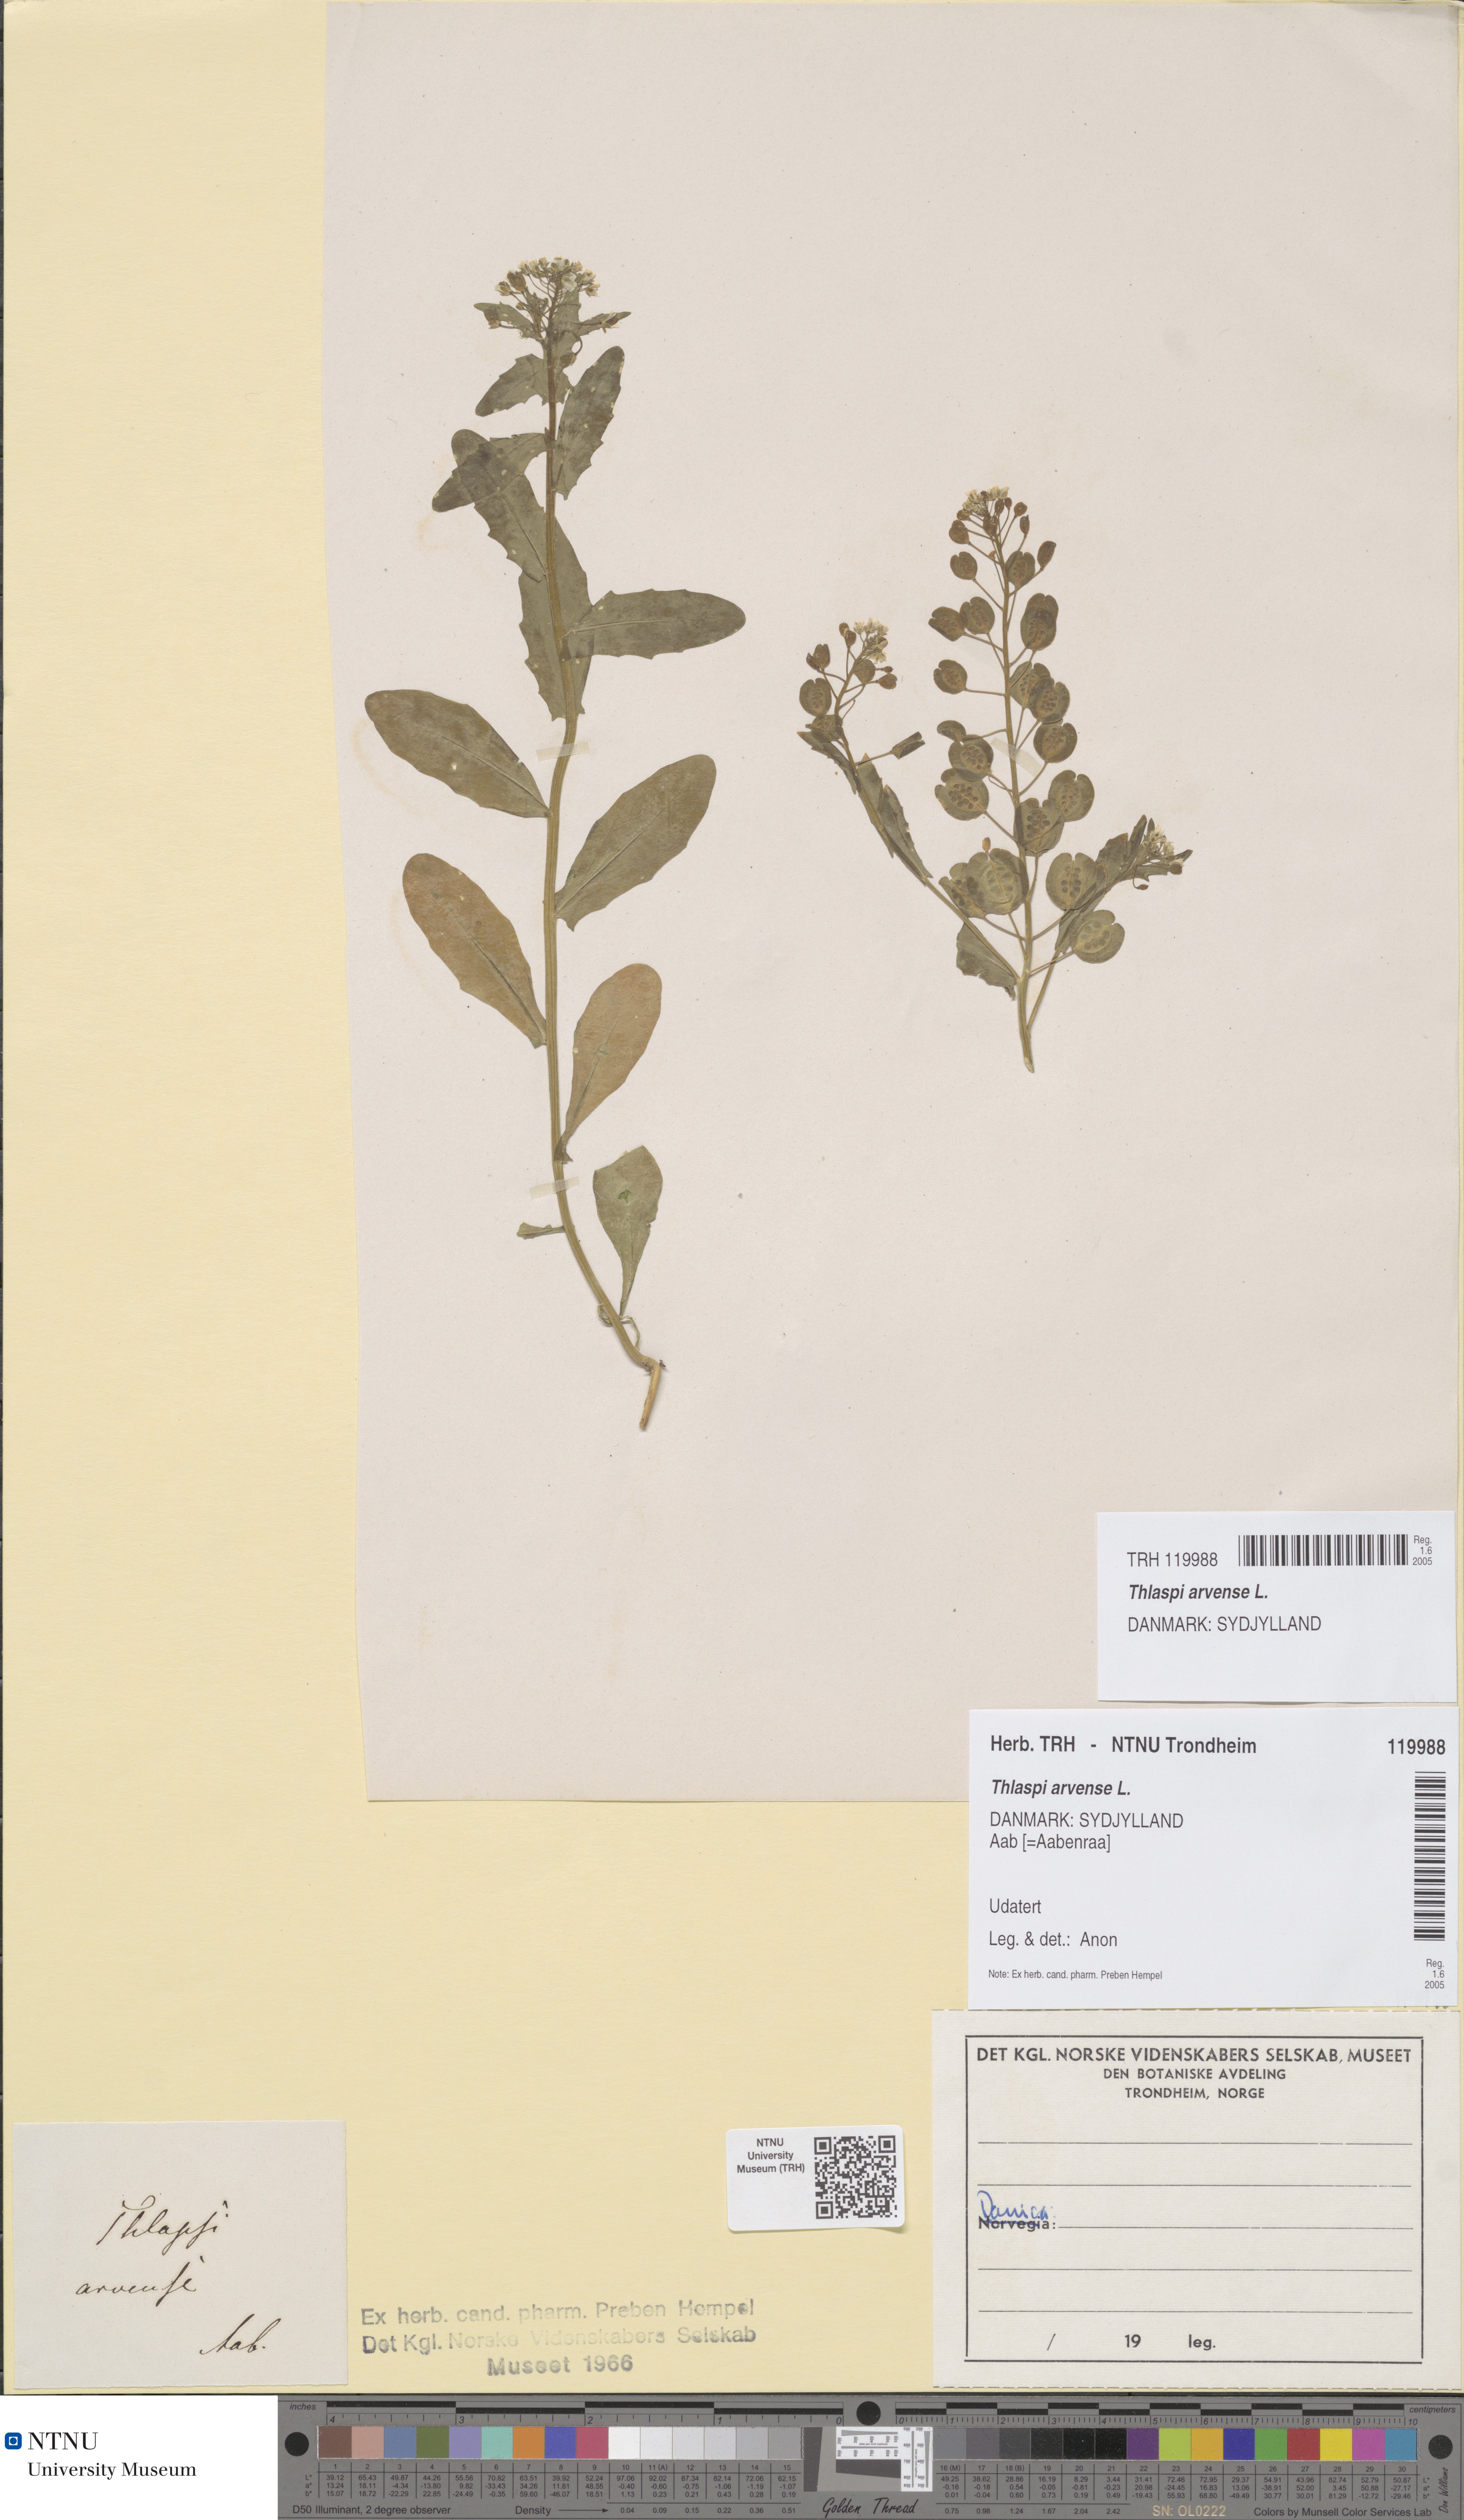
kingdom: Plantae
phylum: Tracheophyta
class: Magnoliopsida
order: Brassicales
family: Brassicaceae
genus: Thlaspi
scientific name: Thlaspi arvense
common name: Field pennycress
